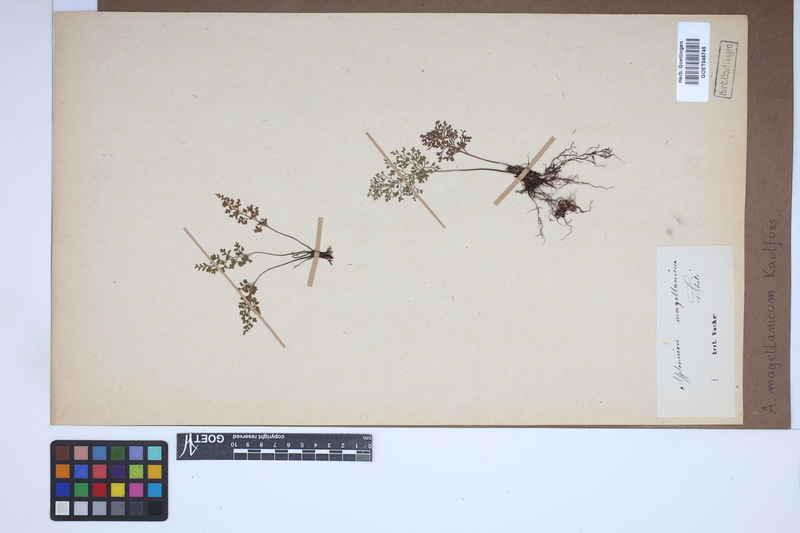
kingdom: Plantae
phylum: Tracheophyta
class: Polypodiopsida
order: Polypodiales
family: Aspleniaceae
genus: Asplenium
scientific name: Asplenium dareoides
